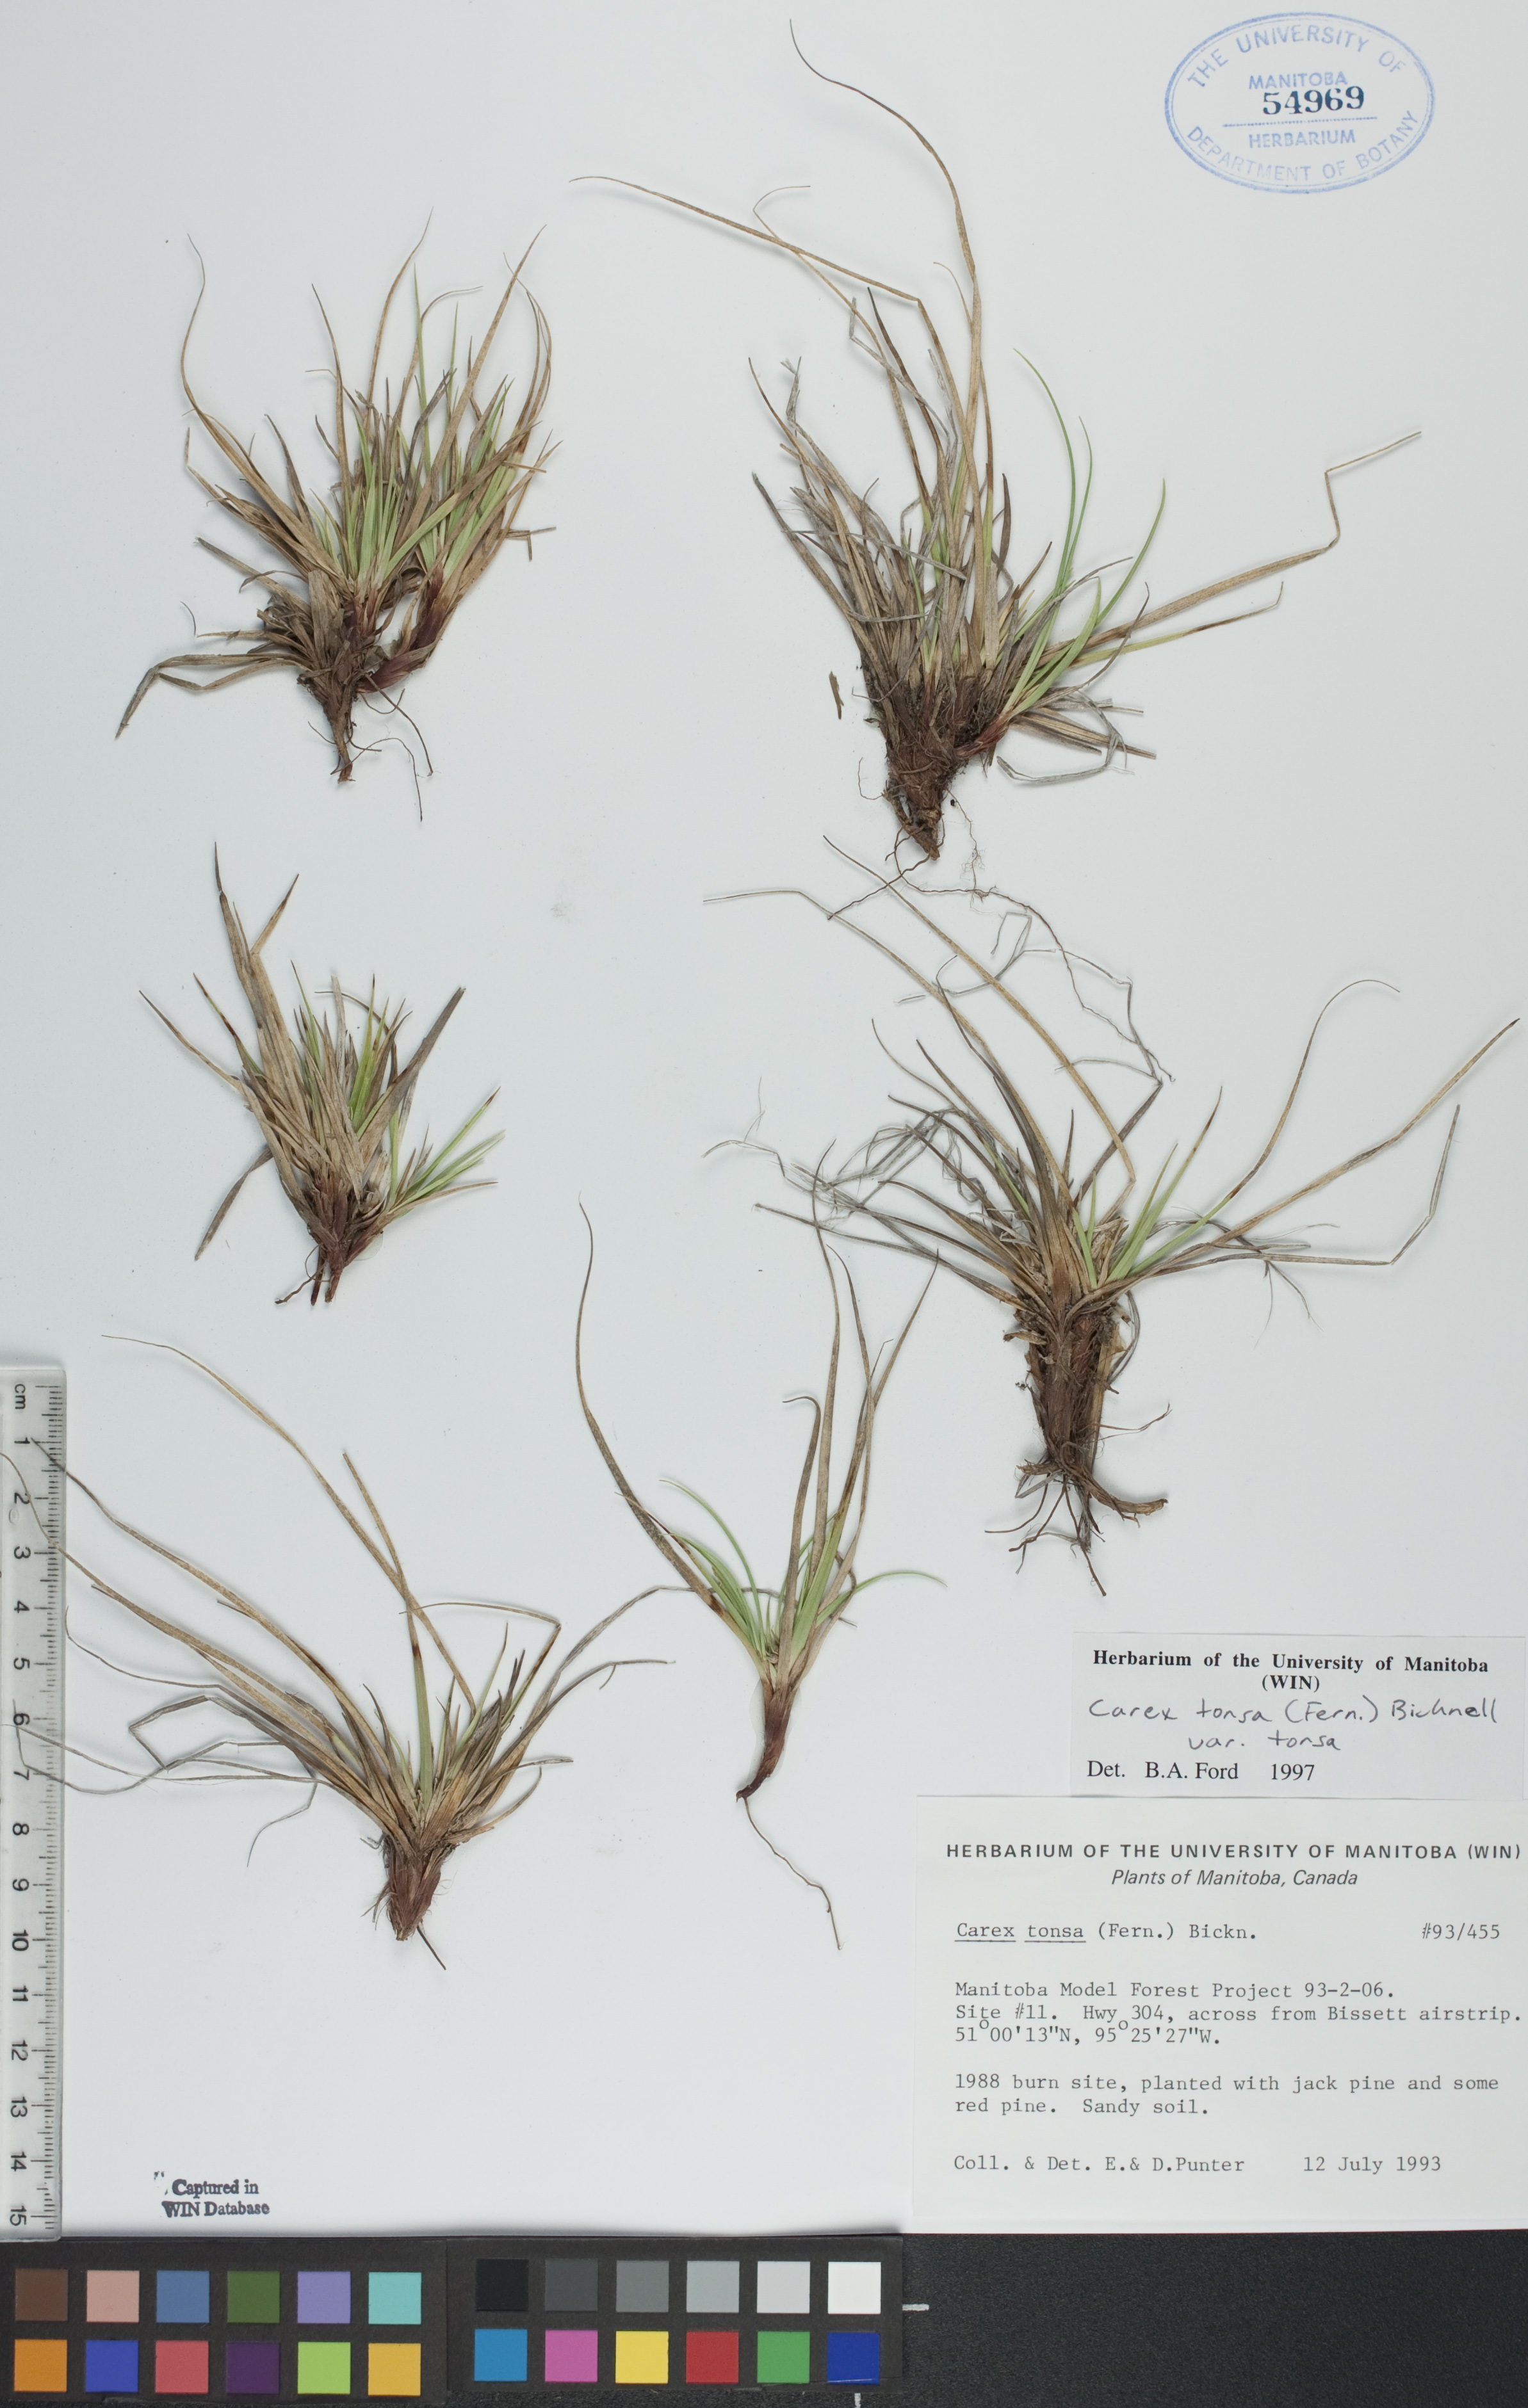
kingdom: Plantae
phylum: Tracheophyta
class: Liliopsida
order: Poales
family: Cyperaceae
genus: Carex
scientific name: Carex tonsa
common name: Bald sedge
